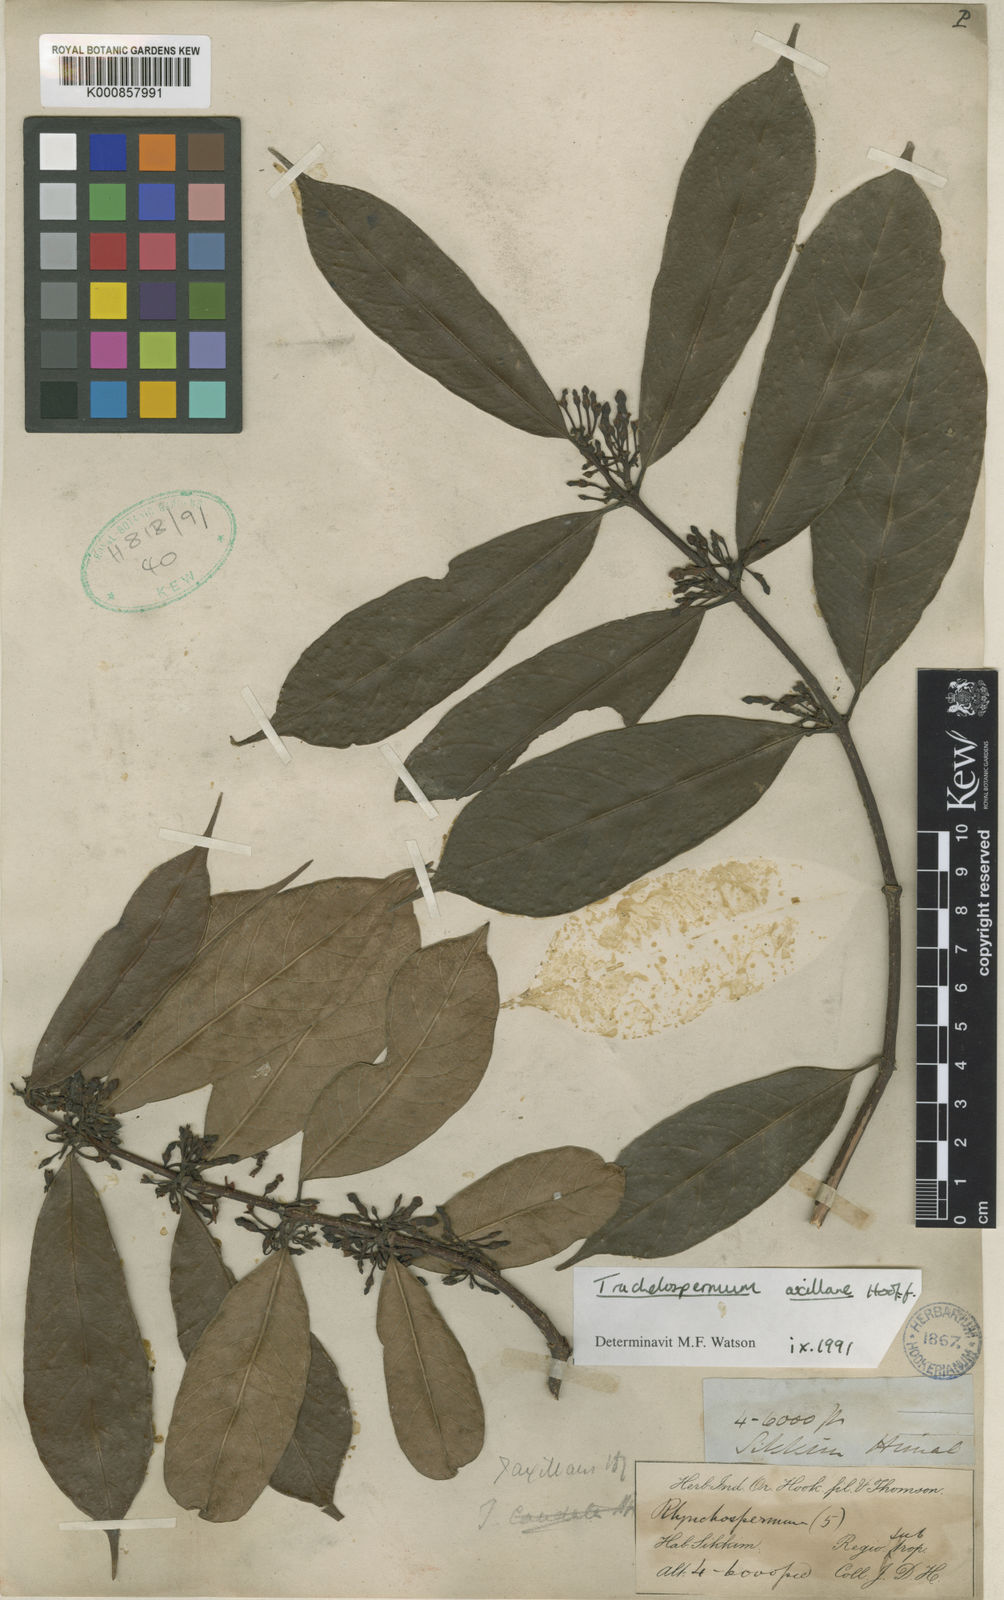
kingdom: Plantae
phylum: Tracheophyta
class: Magnoliopsida
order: Gentianales
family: Apocynaceae
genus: Trachelospermum
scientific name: Trachelospermum axillare
